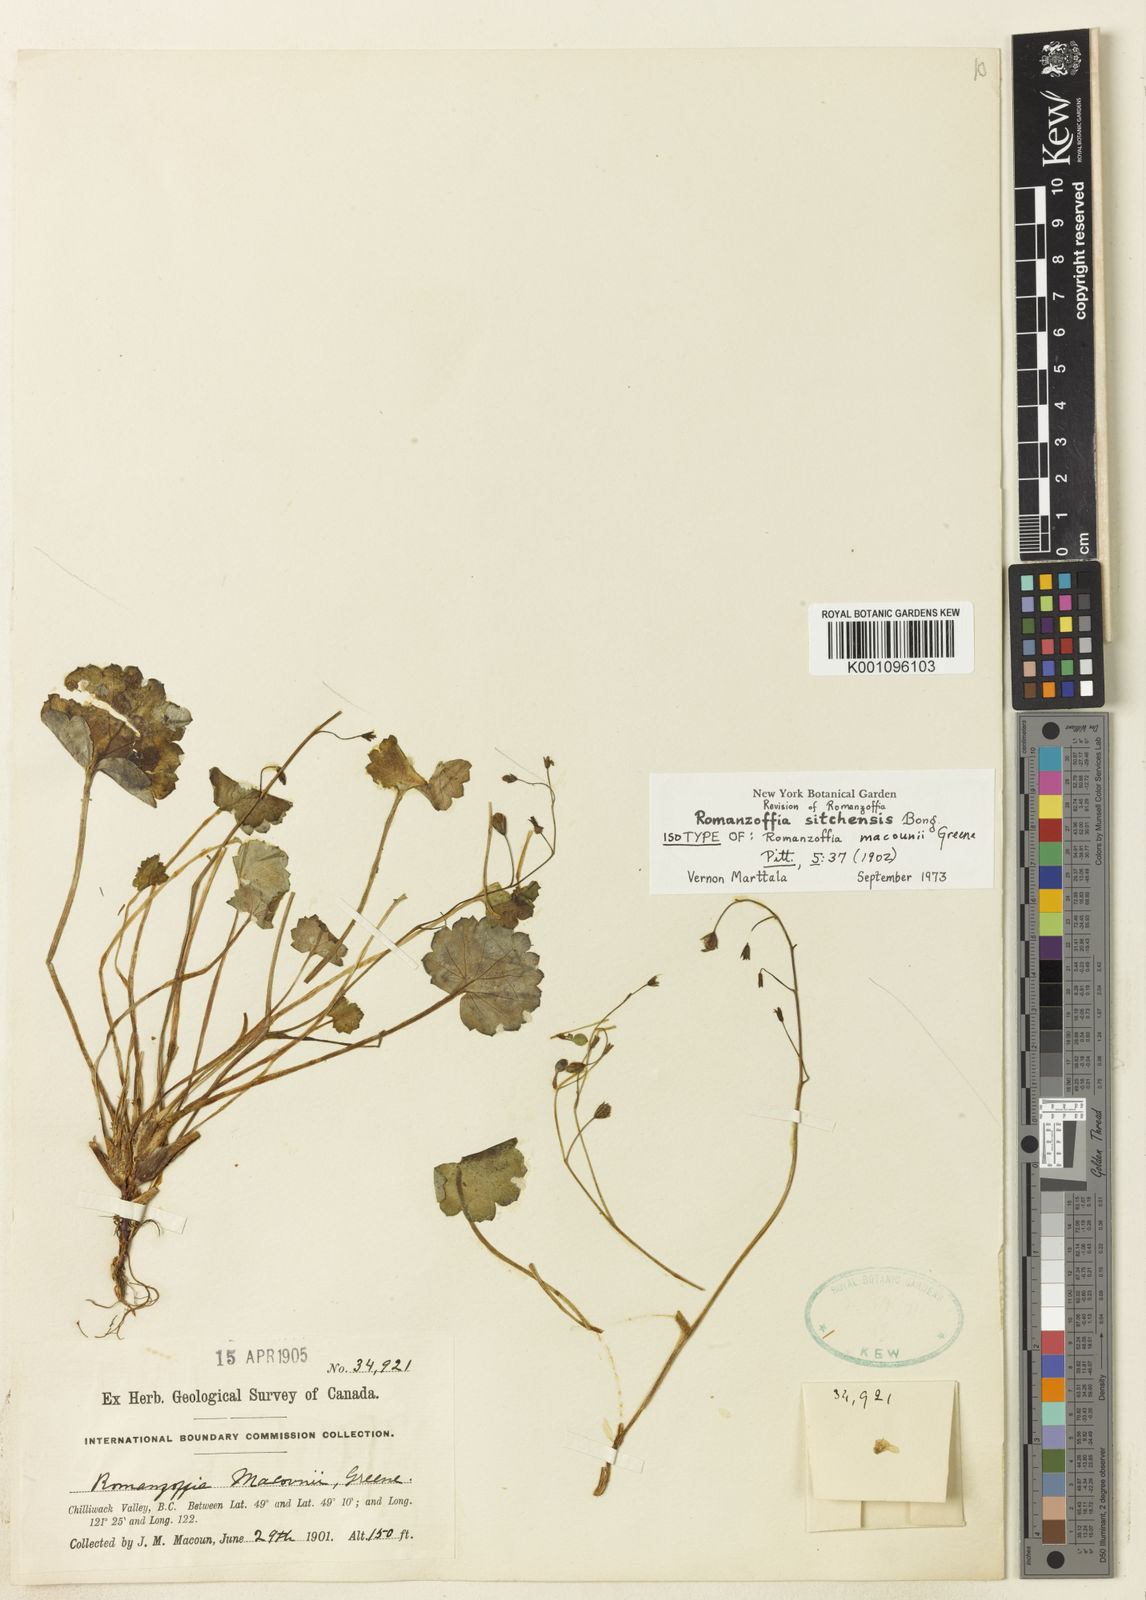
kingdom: Plantae
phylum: Tracheophyta
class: Magnoliopsida
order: Boraginales
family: Hydrophyllaceae
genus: Romanzoffia
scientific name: Romanzoffia sitchensis
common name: Sitka mistmaid
